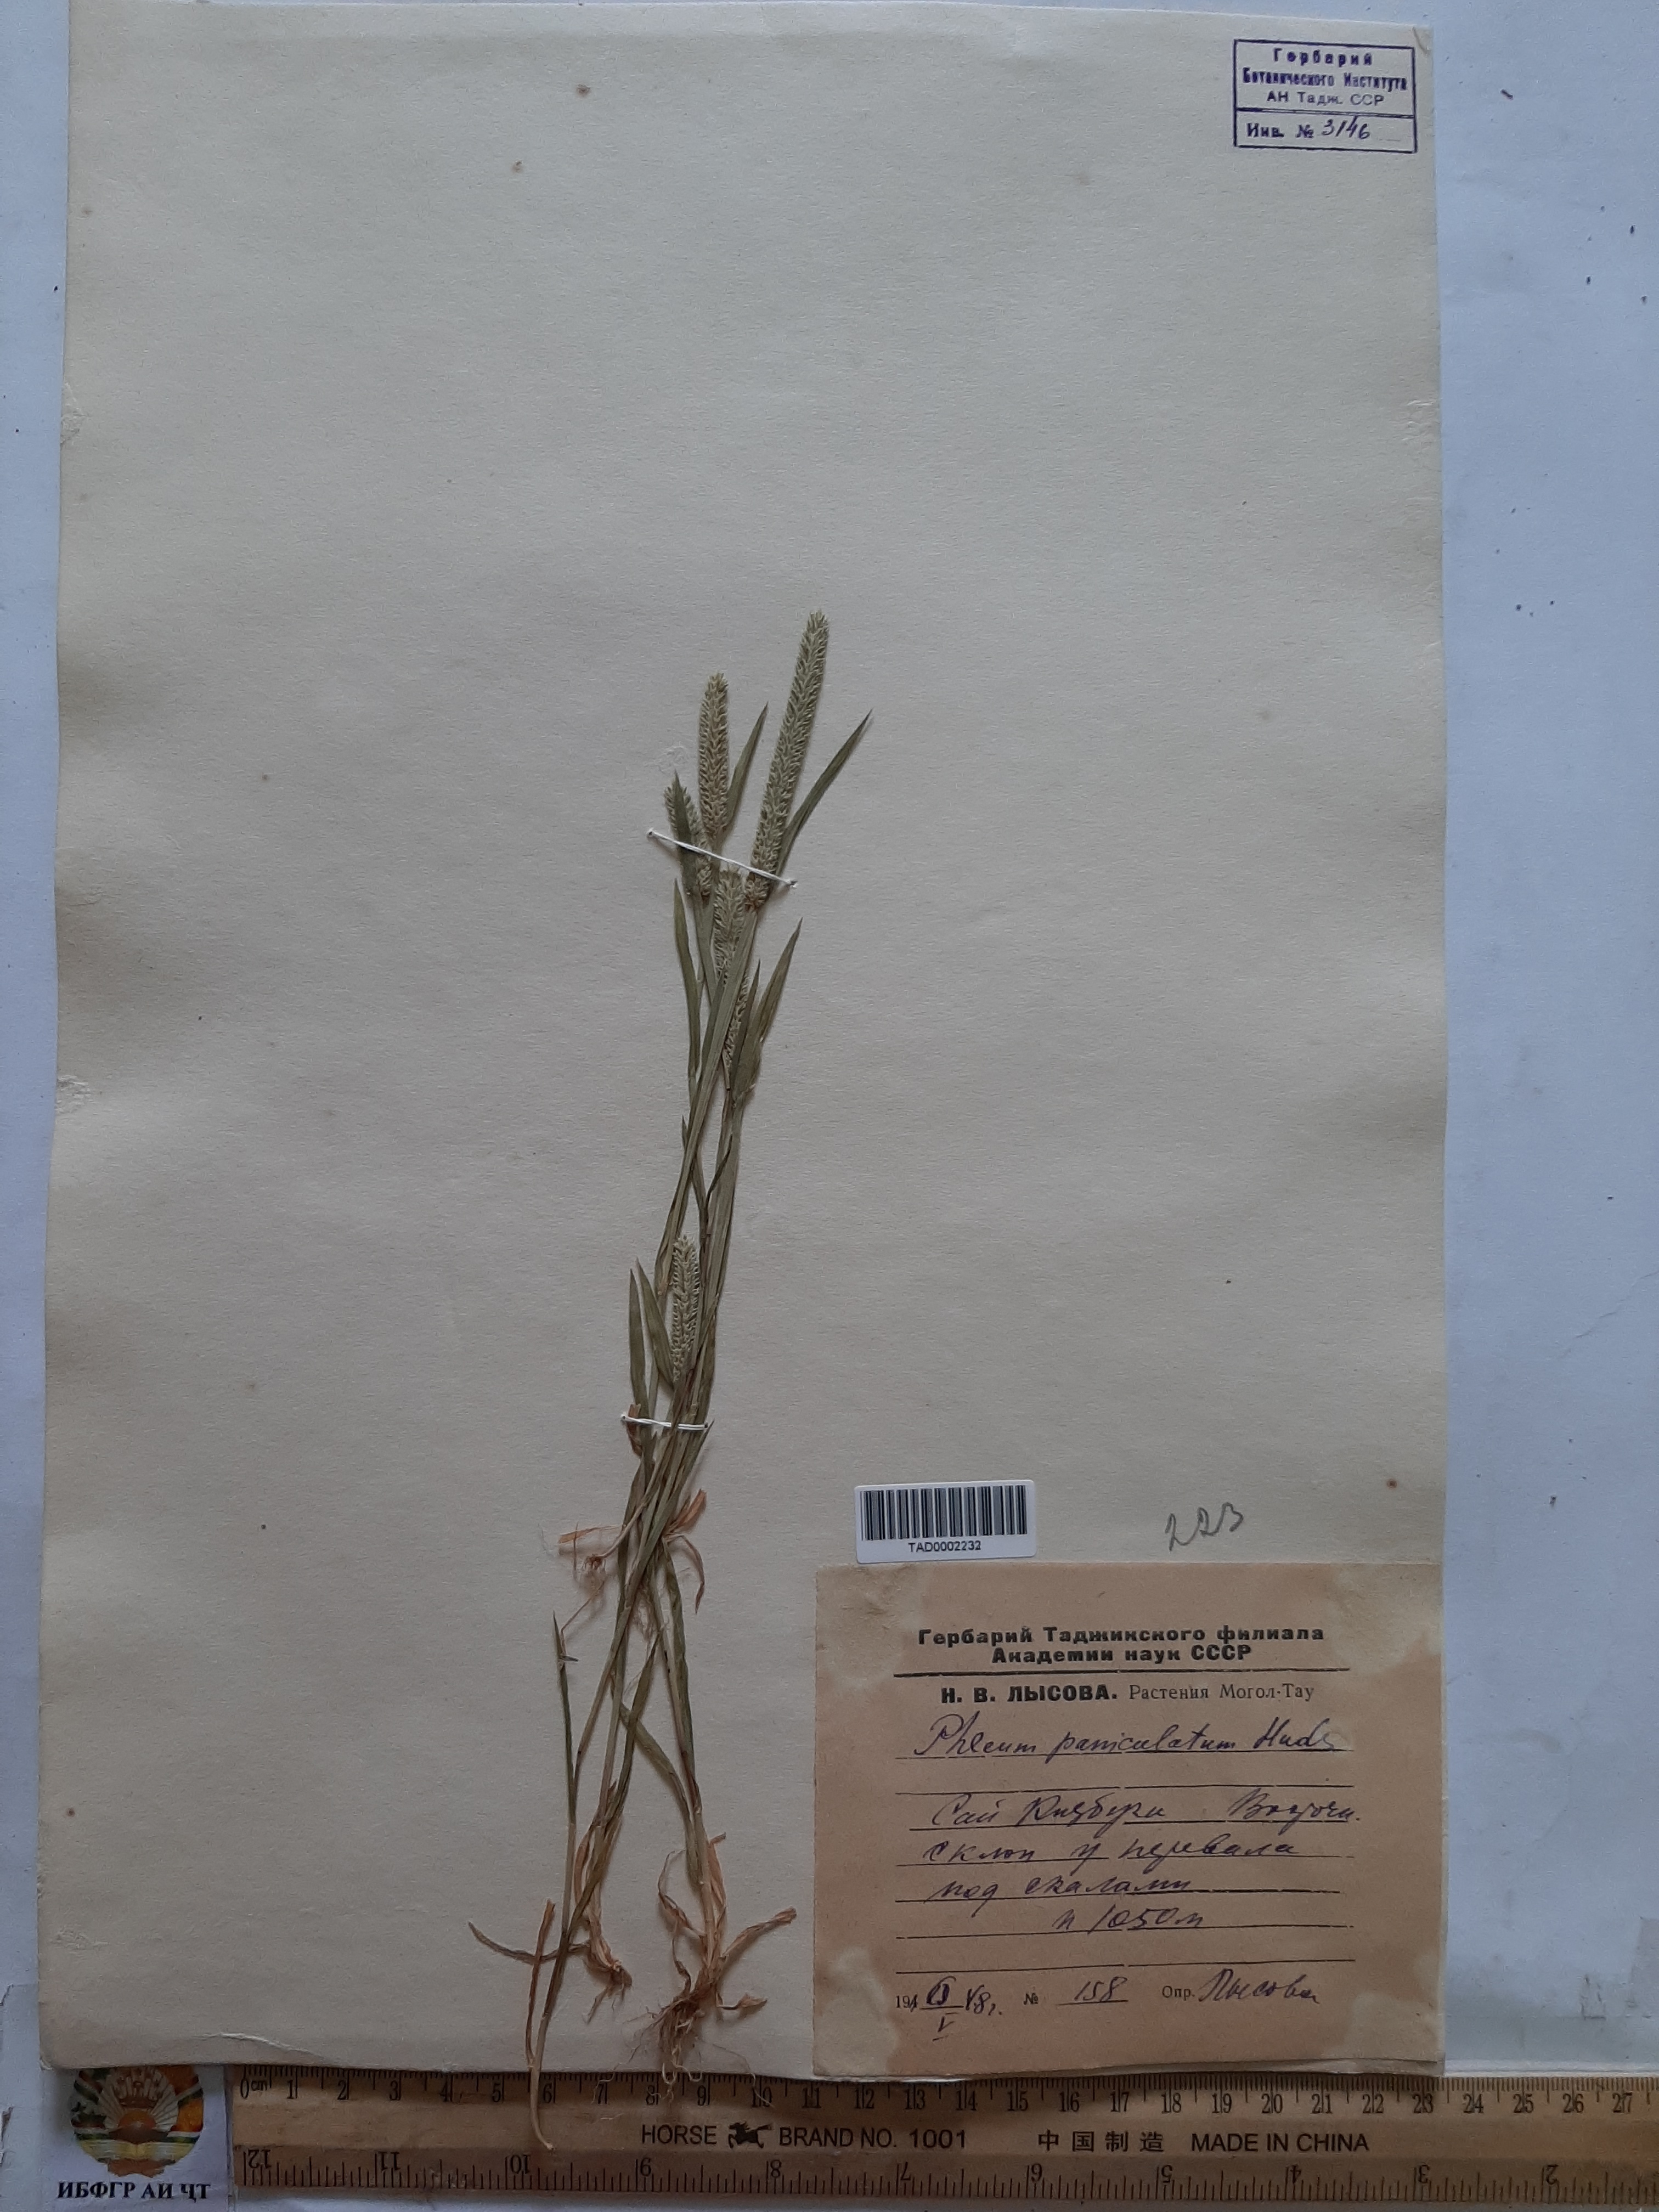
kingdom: Plantae
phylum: Tracheophyta
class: Liliopsida
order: Poales
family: Poaceae
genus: Phleum
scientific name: Phleum paniculatum
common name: British timothy
